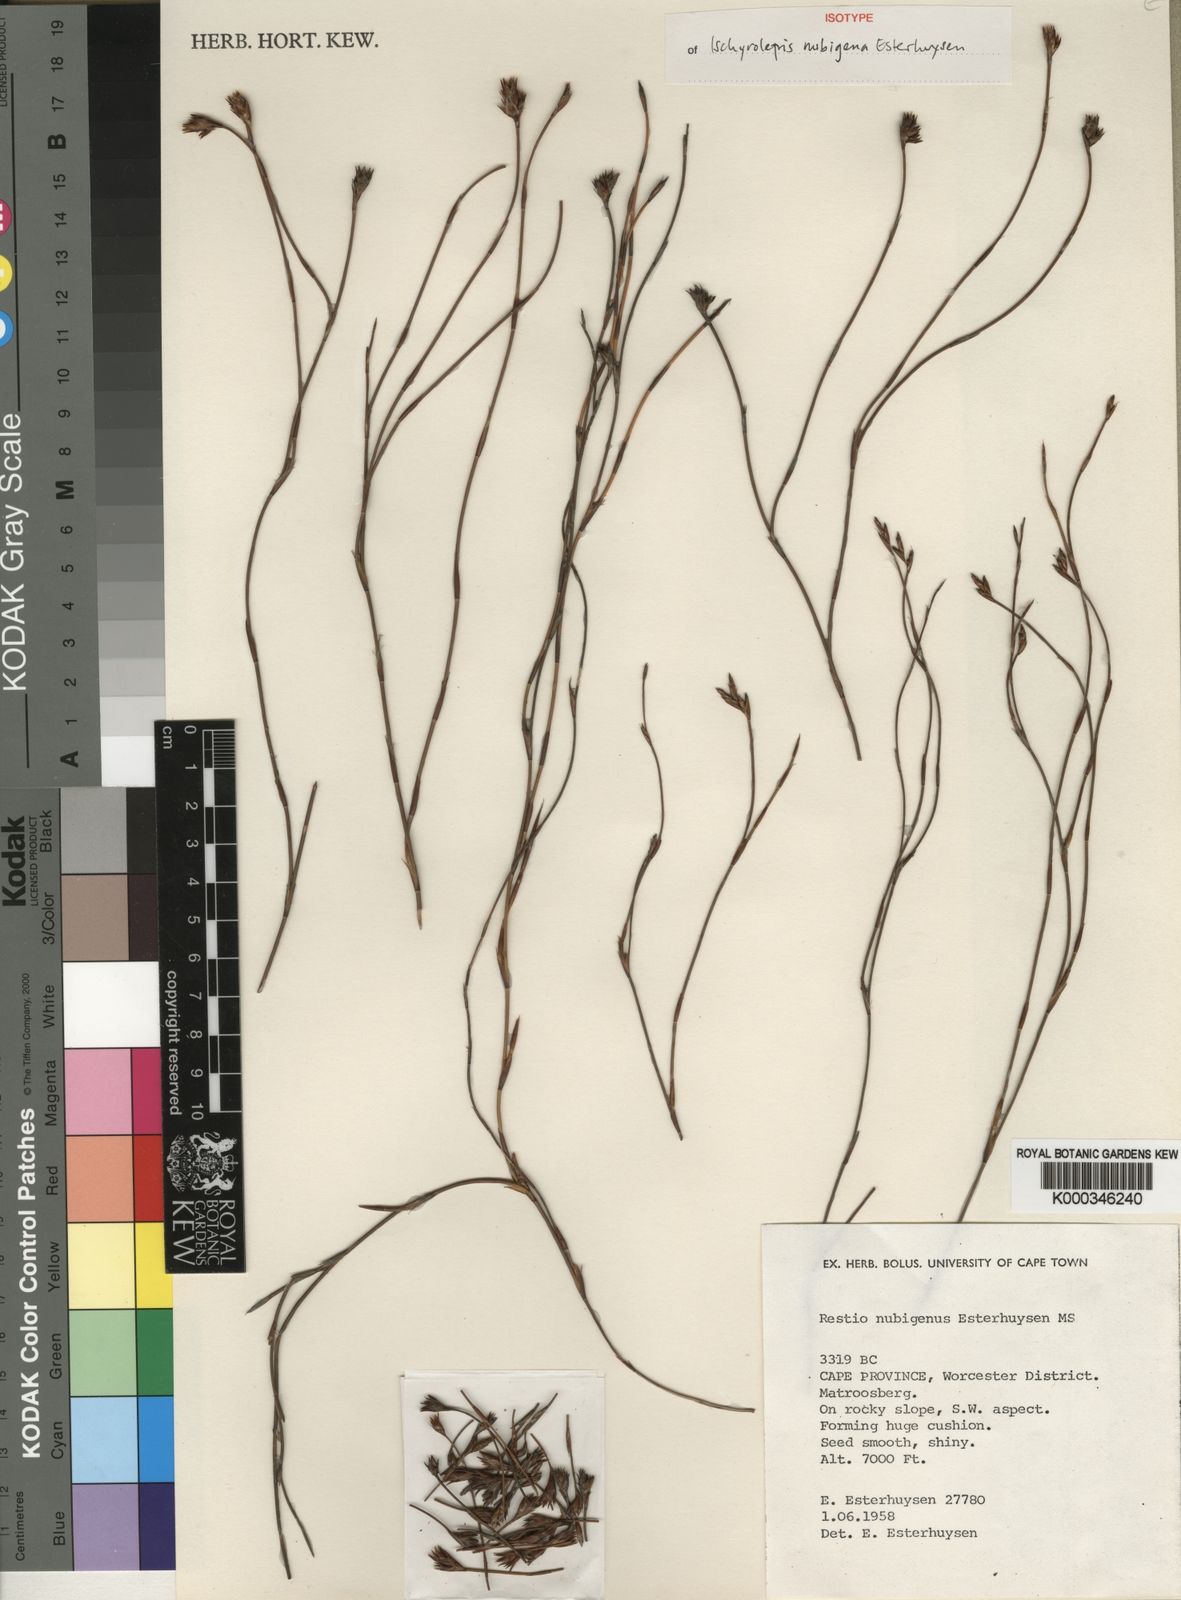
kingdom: Plantae
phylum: Tracheophyta
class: Liliopsida
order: Poales
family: Restionaceae
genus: Restio
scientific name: Restio nubigenus
